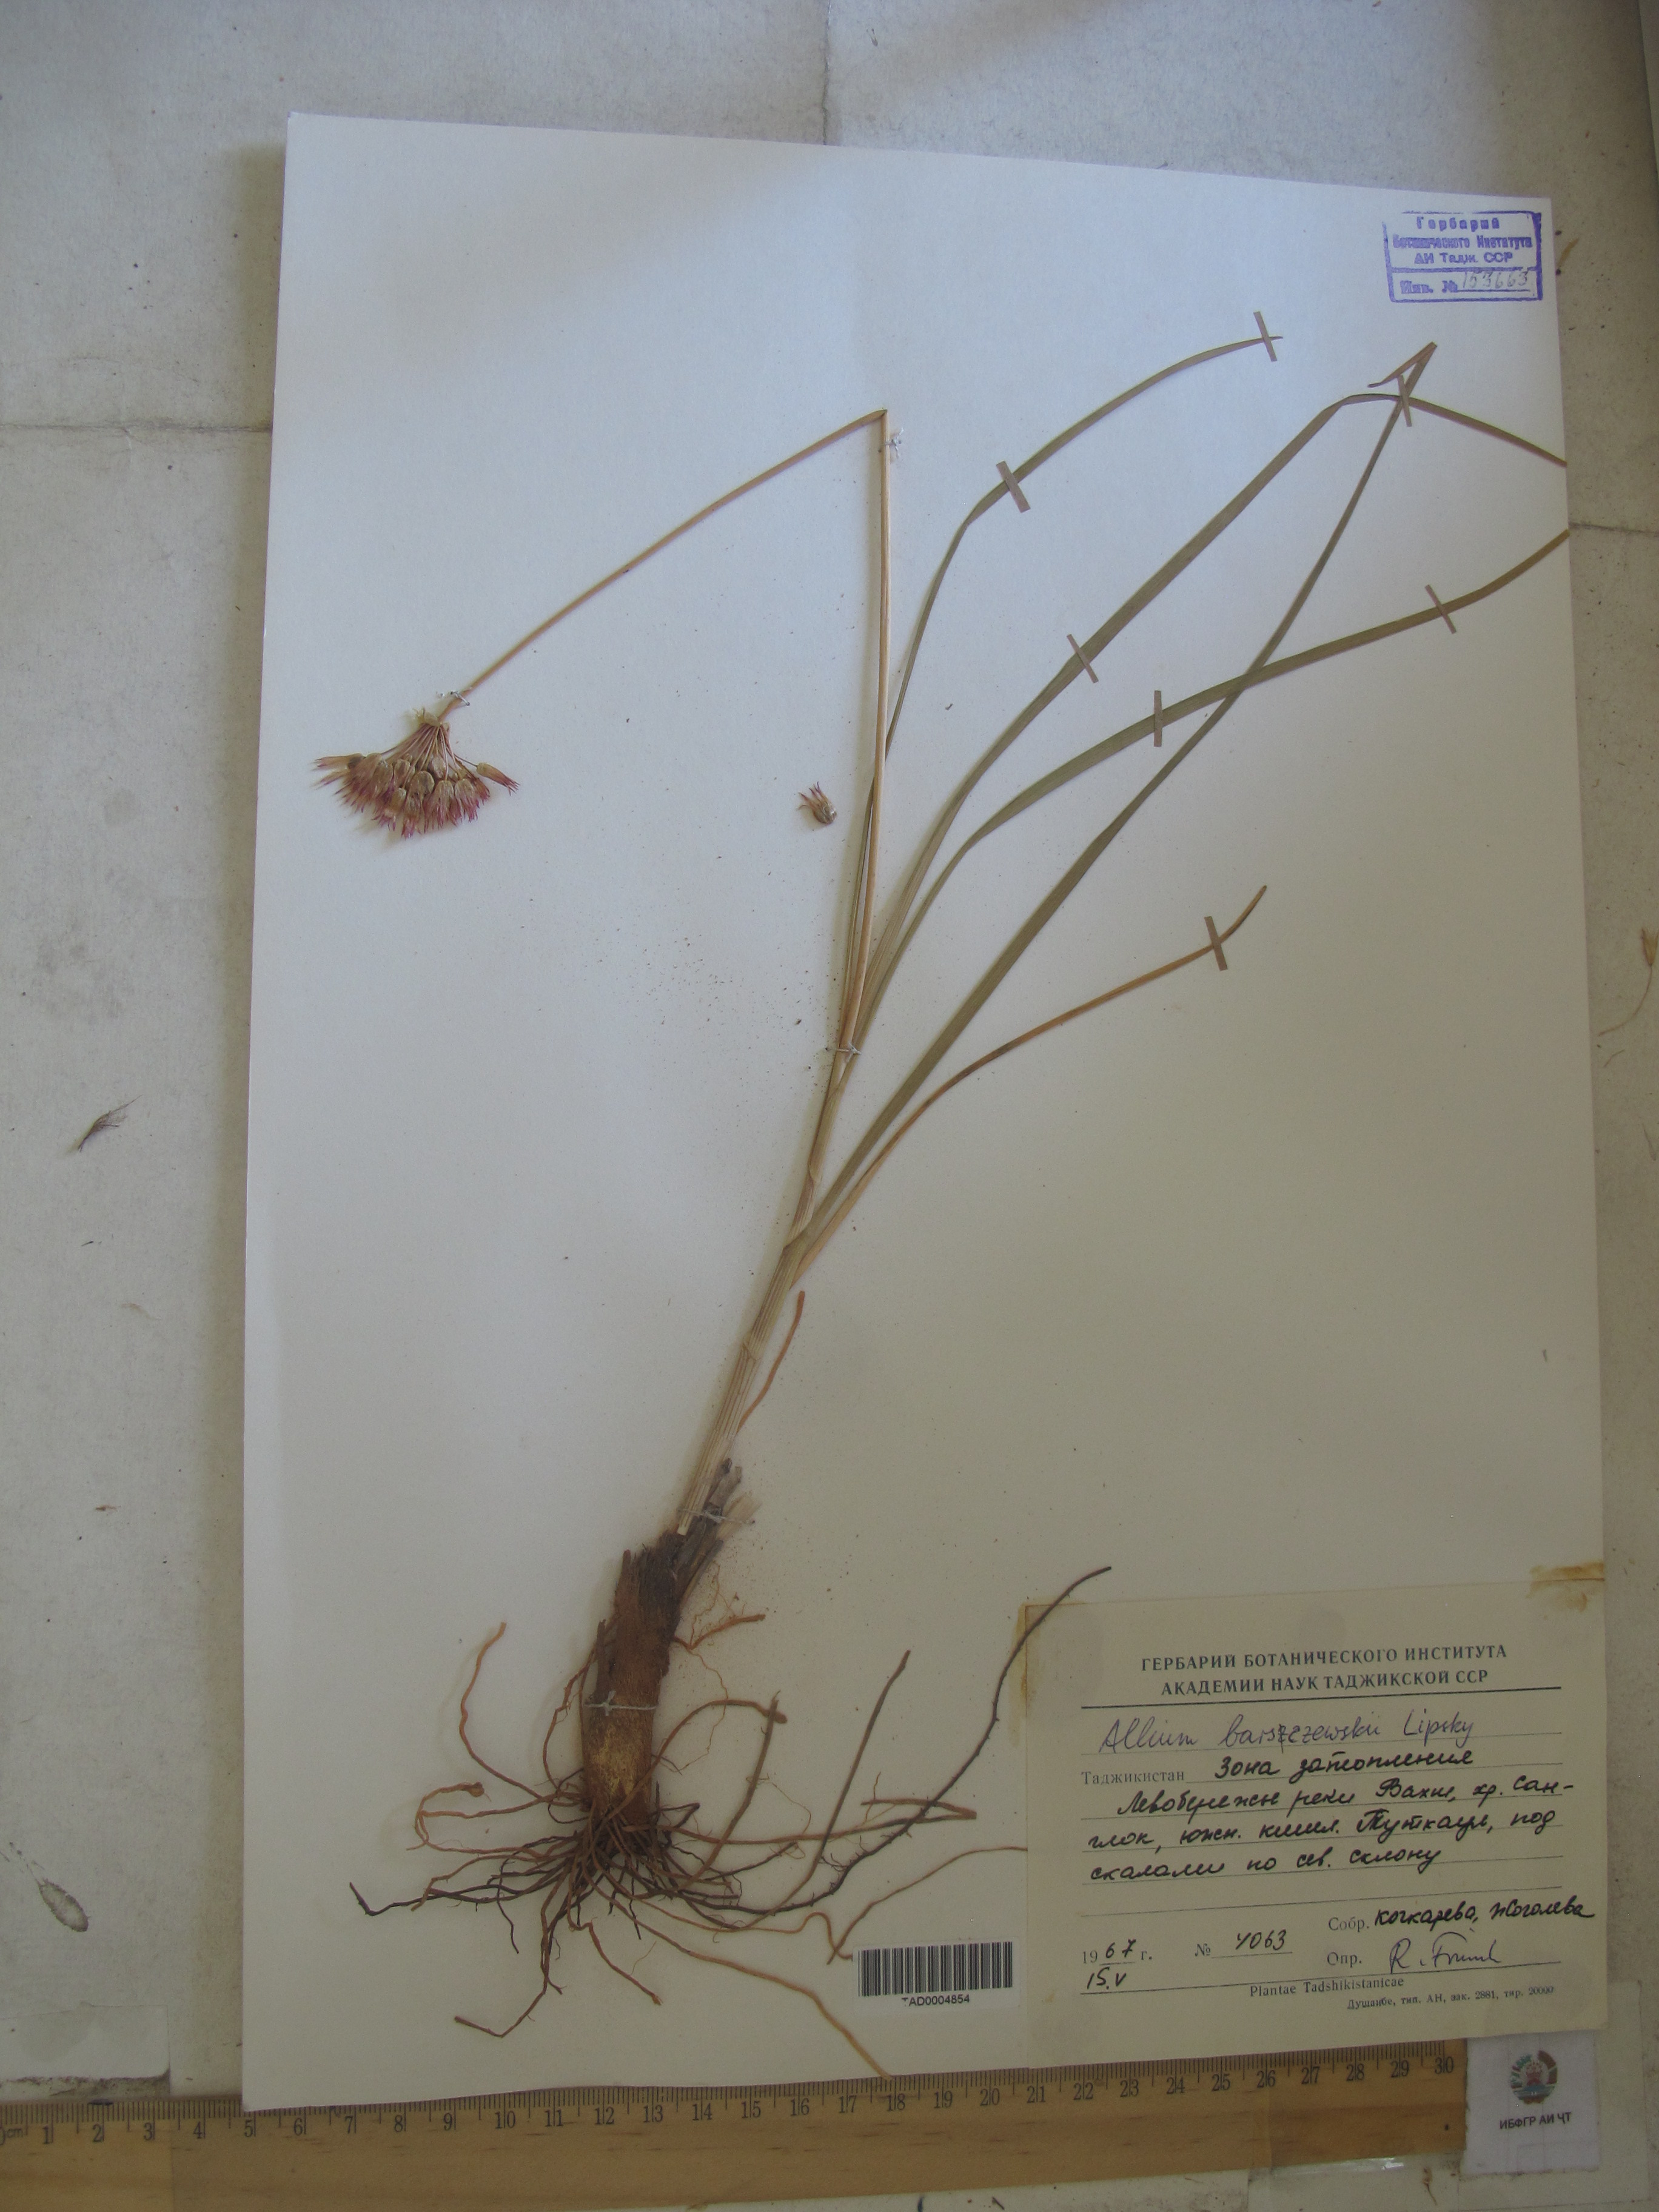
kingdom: Plantae
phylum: Tracheophyta
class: Liliopsida
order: Asparagales
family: Amaryllidaceae
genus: Allium
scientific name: Allium barsczewskii
